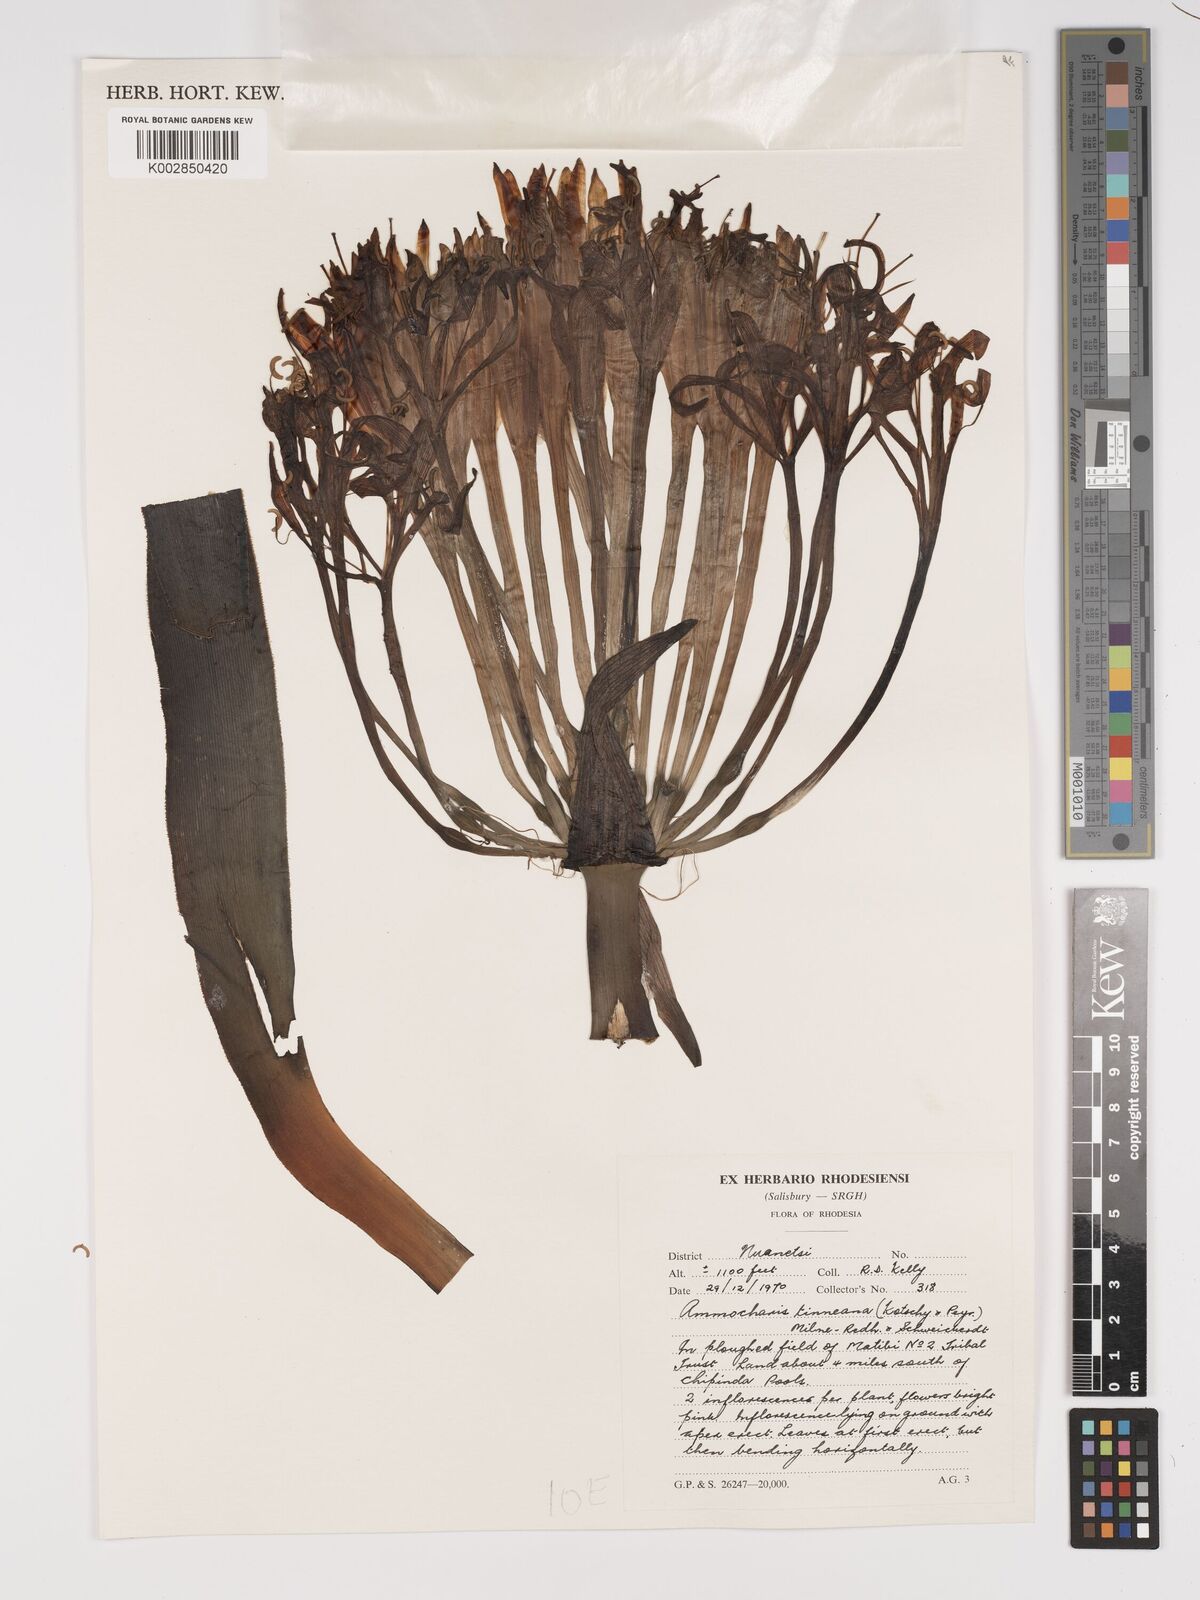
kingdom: Plantae
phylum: Tracheophyta
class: Liliopsida
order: Asparagales
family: Amaryllidaceae
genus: Ammocharis
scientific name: Ammocharis tinneana
